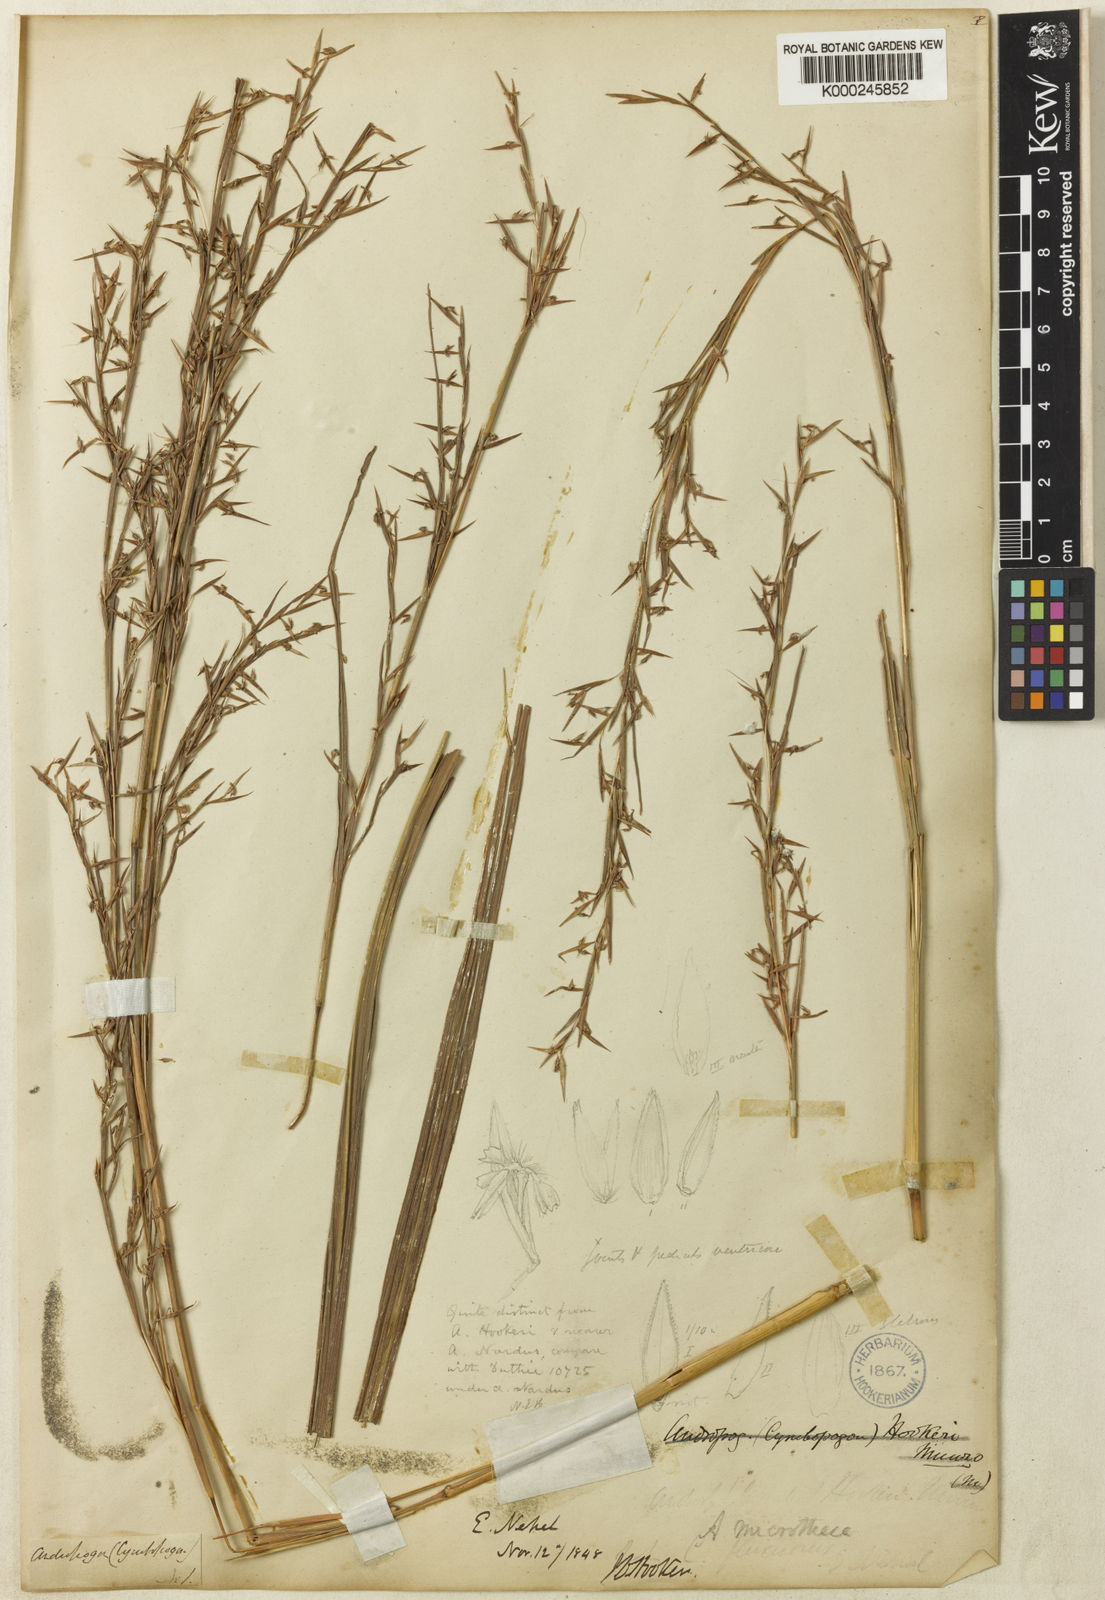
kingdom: Plantae
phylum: Tracheophyta
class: Liliopsida
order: Poales
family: Poaceae
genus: Cymbopogon
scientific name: Cymbopogon microthecus
